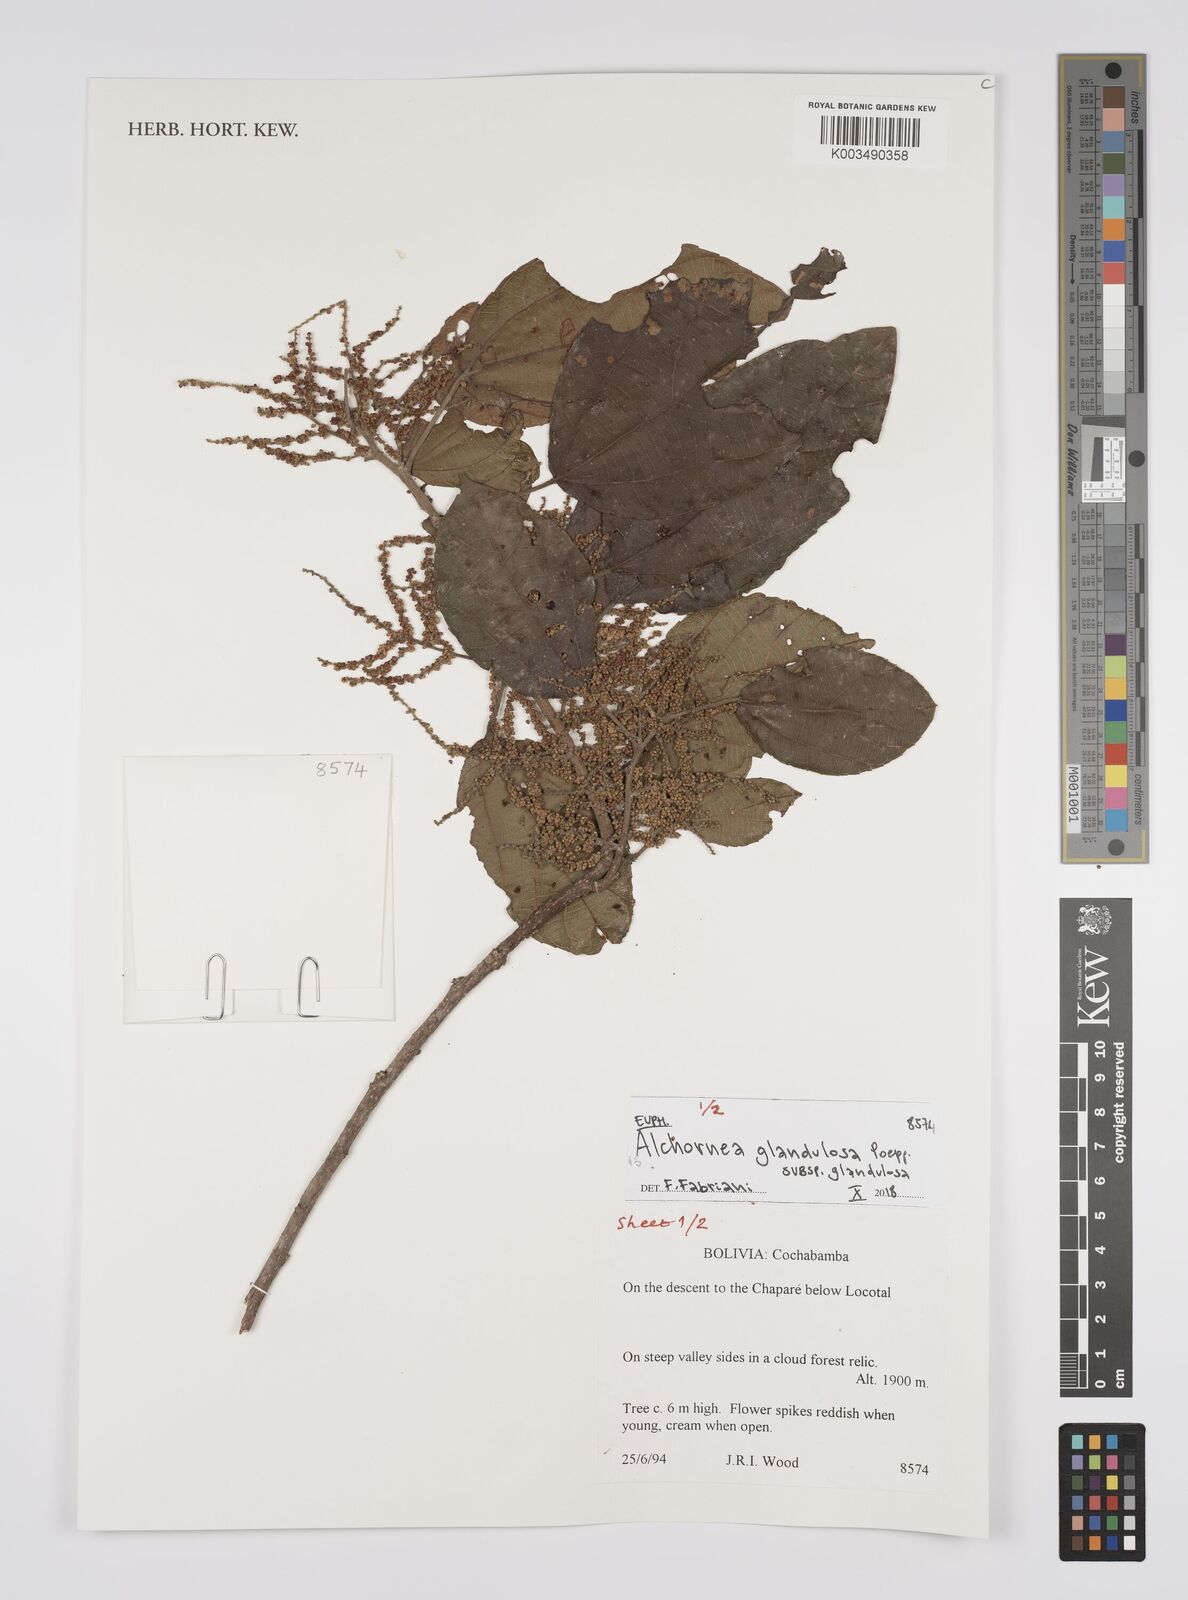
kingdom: Plantae
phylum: Tracheophyta
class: Magnoliopsida
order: Malpighiales
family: Euphorbiaceae
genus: Alchornea
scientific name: Alchornea glandulosa
